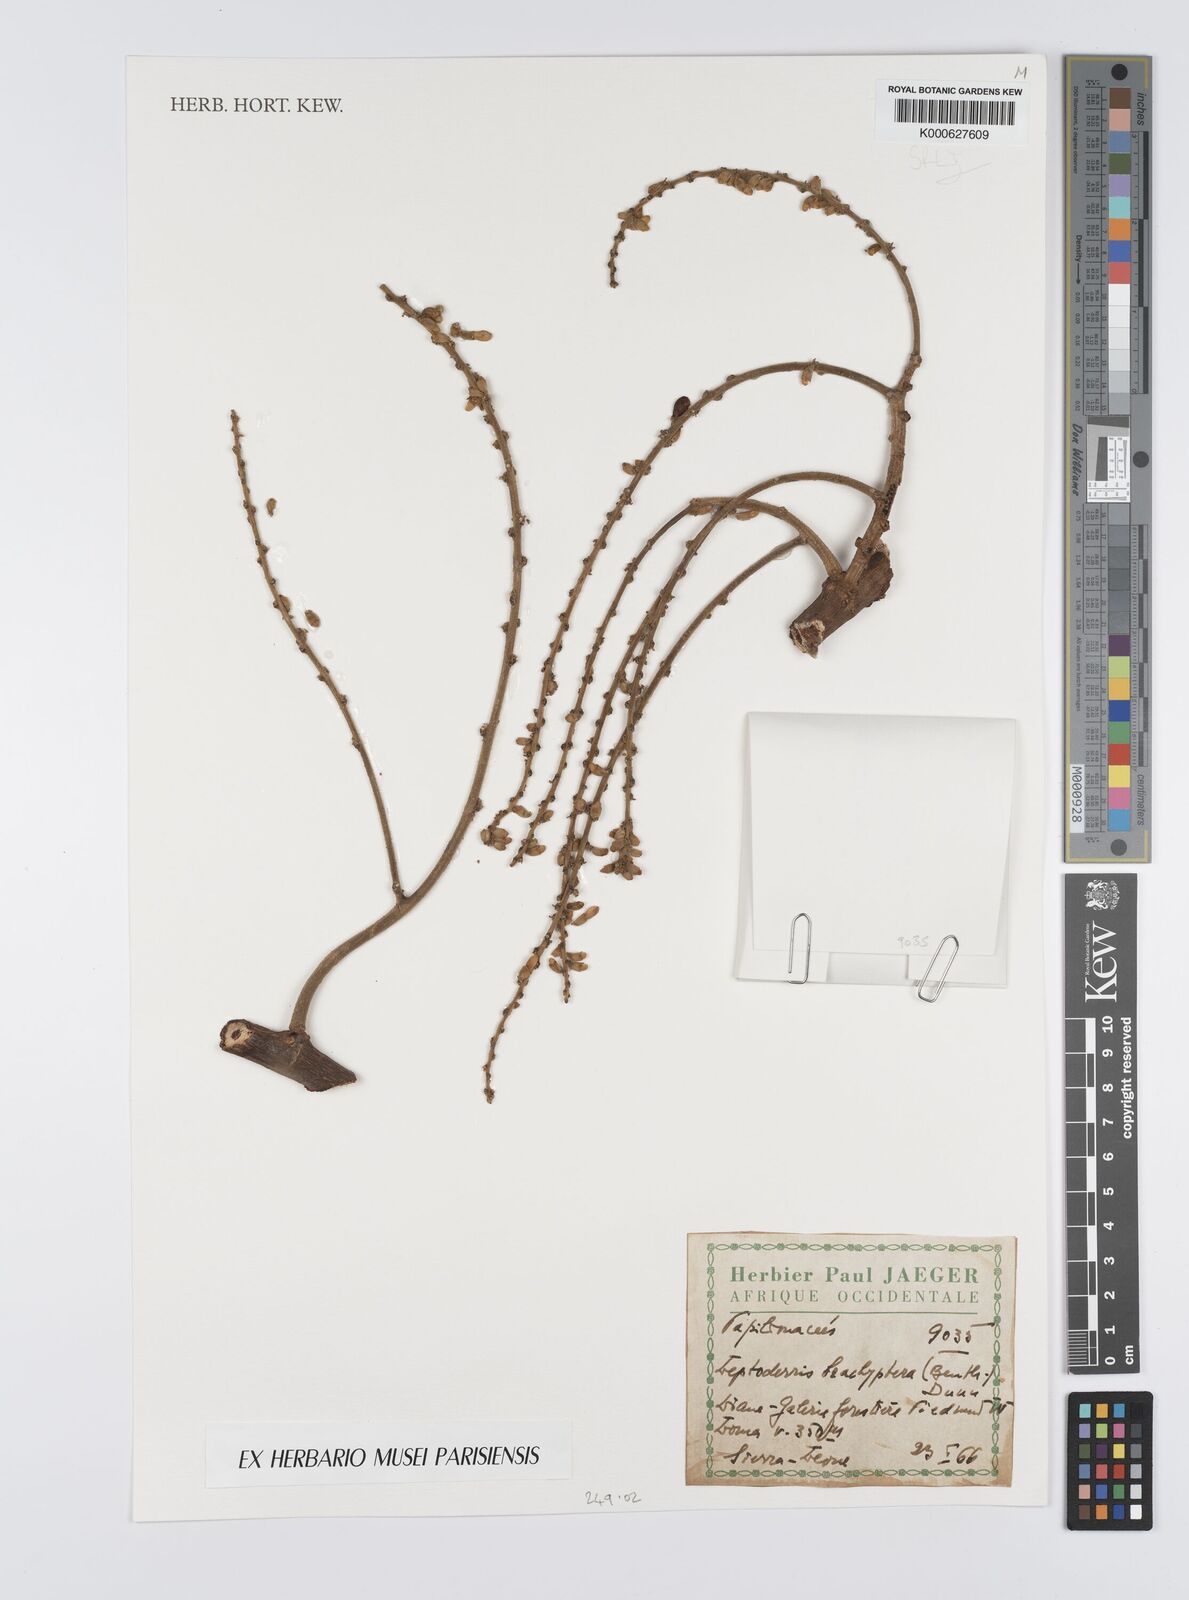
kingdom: Plantae
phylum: Tracheophyta
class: Magnoliopsida
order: Fabales
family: Fabaceae
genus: Leptoderris
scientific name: Leptoderris brachyptera
